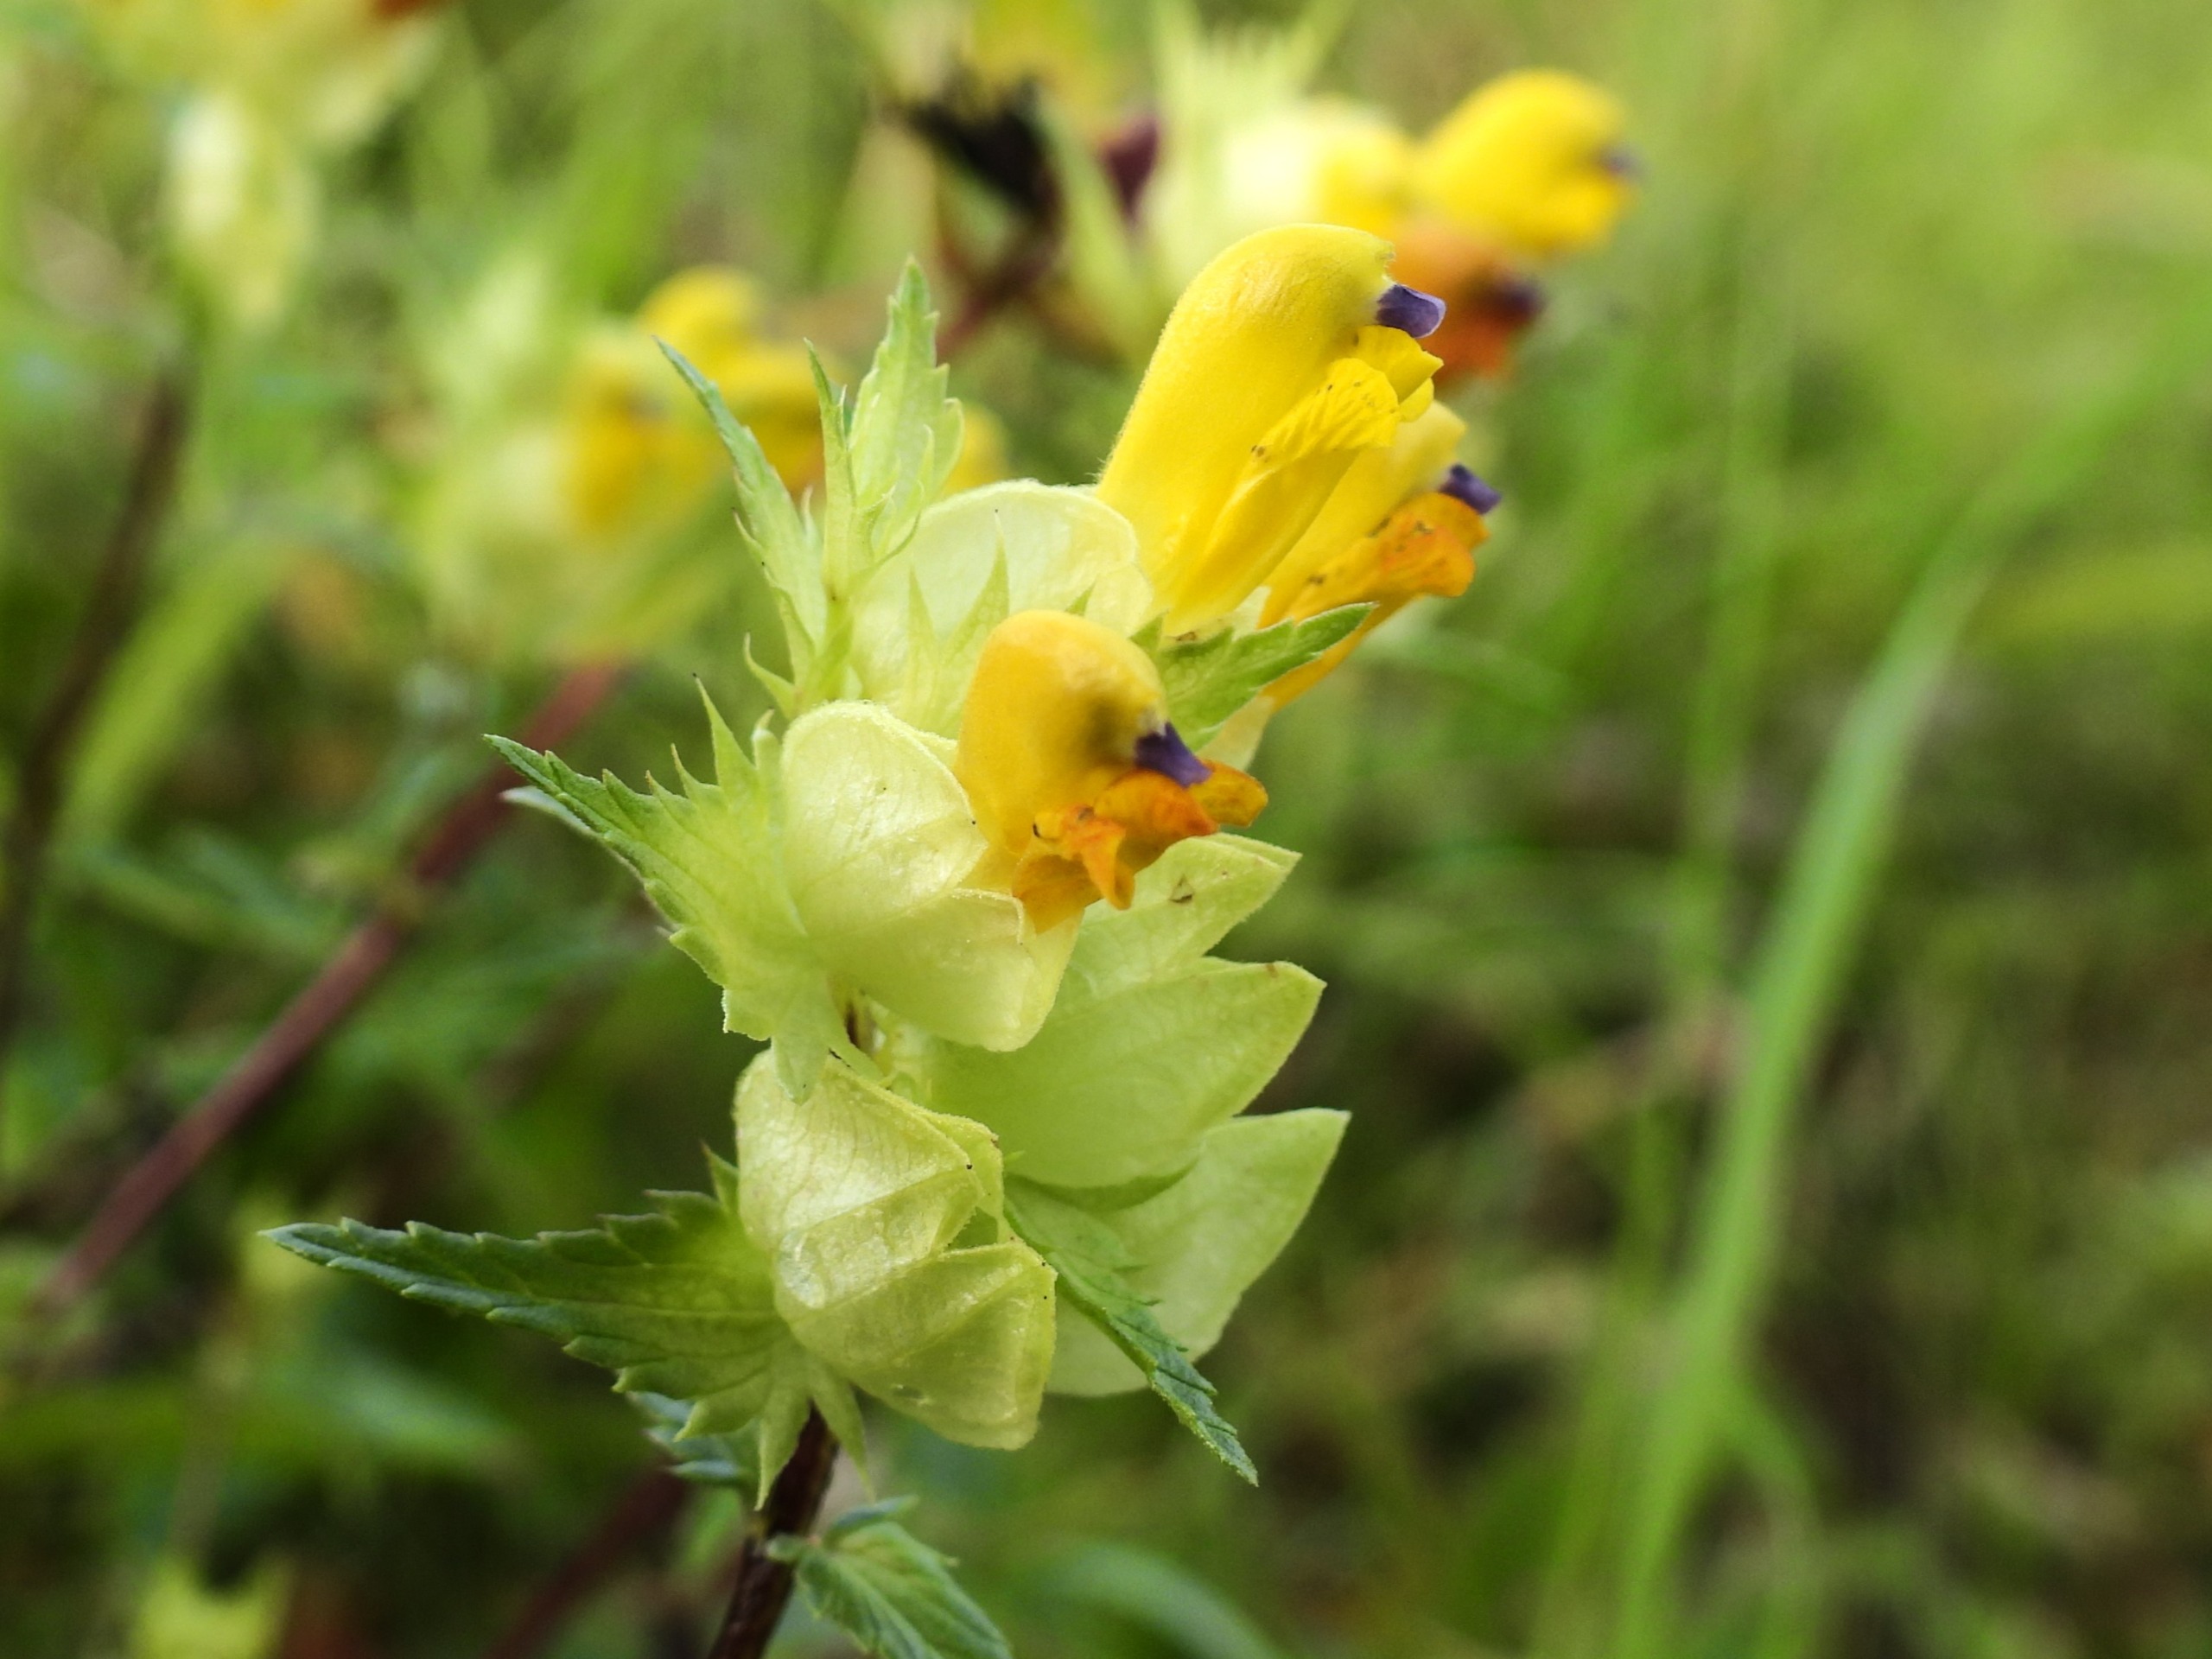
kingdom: Plantae
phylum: Tracheophyta
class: Magnoliopsida
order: Lamiales
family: Orobanchaceae
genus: Rhinanthus
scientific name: Rhinanthus
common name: Stor skjaller
